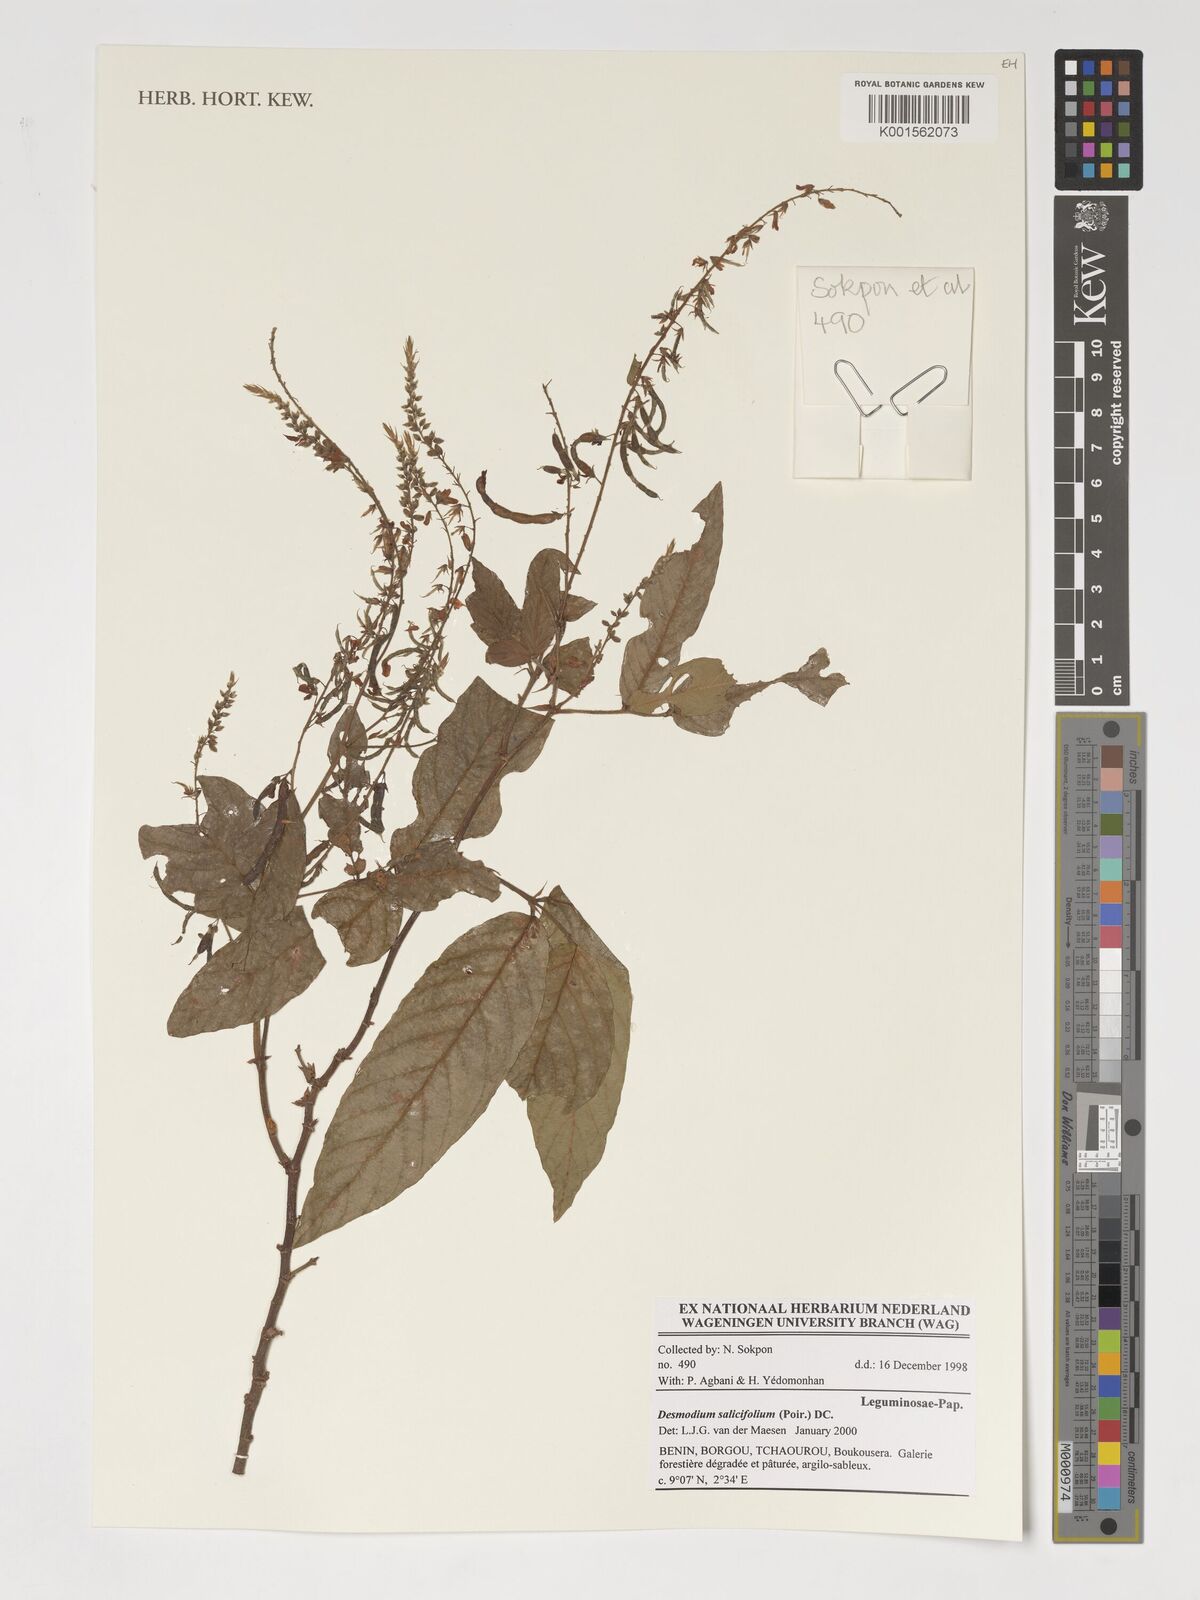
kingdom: Plantae
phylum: Tracheophyta
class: Magnoliopsida
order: Fabales
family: Fabaceae
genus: Pleurolobus
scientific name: Pleurolobus salicifolius
